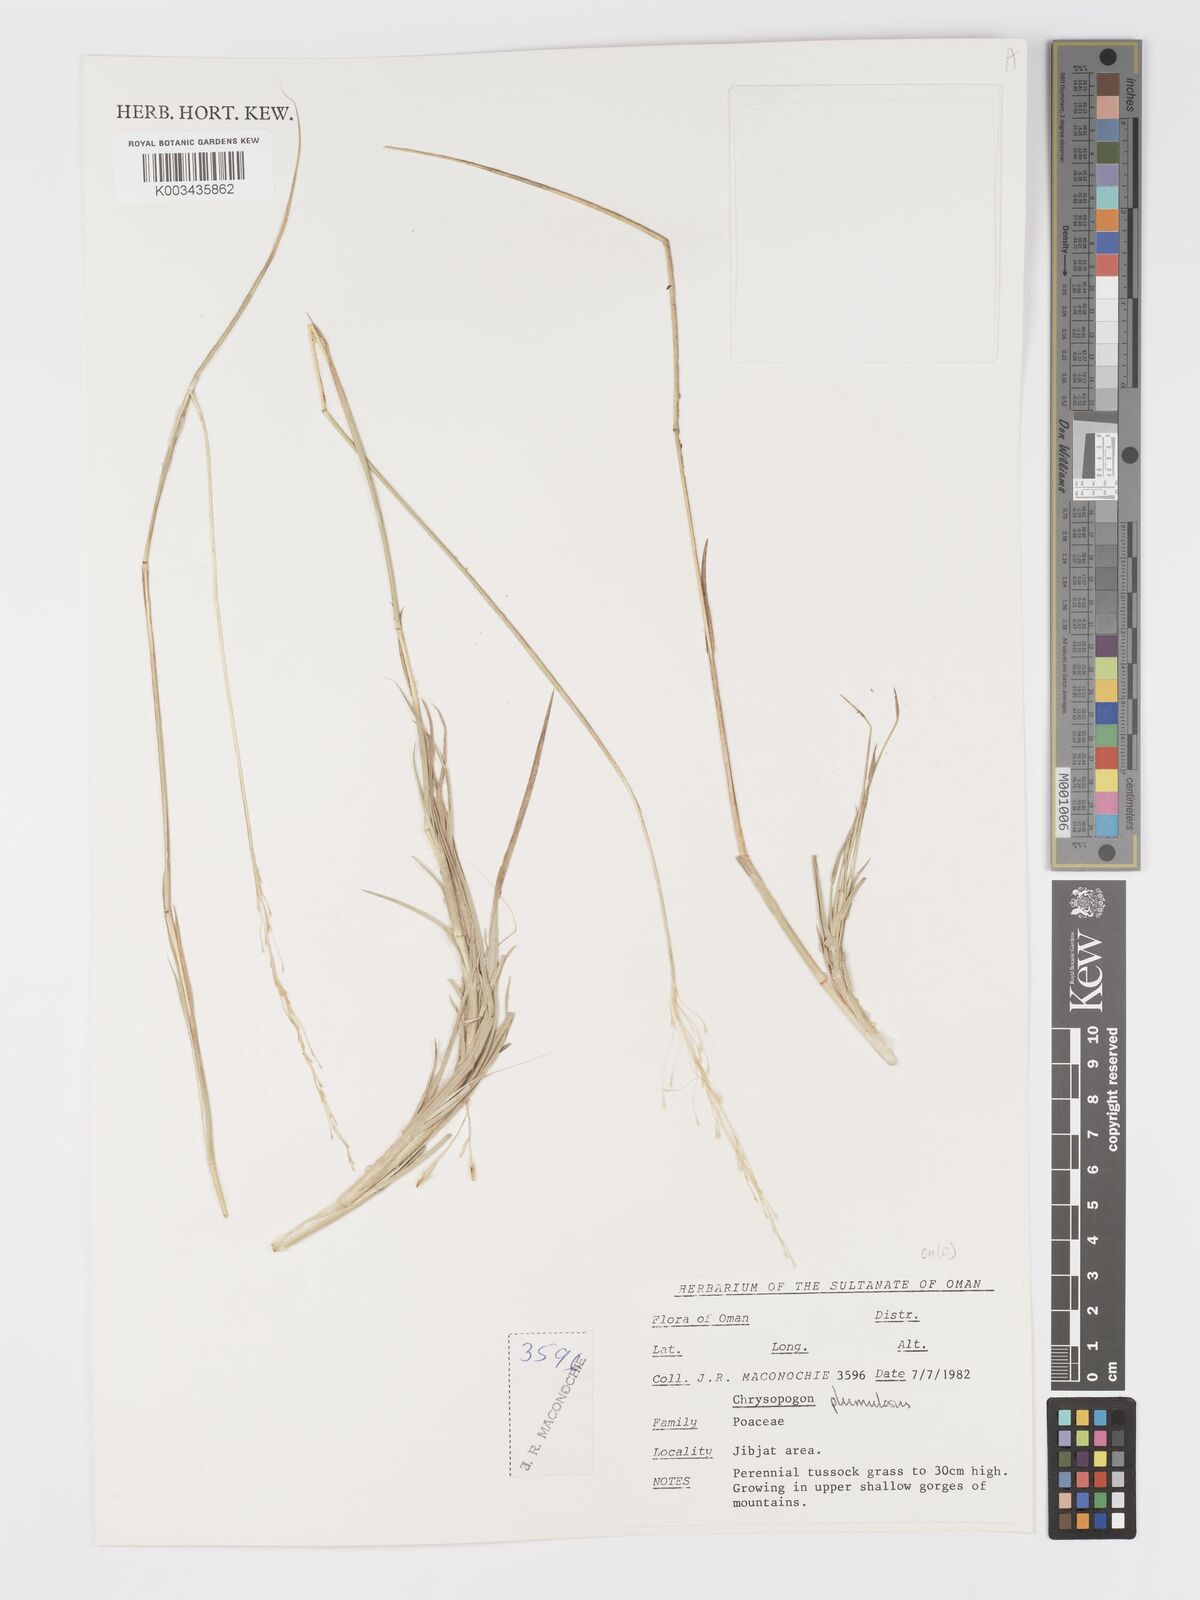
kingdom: Plantae
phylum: Tracheophyta
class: Liliopsida
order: Poales
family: Poaceae
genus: Chrysopogon
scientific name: Chrysopogon plumulosus
